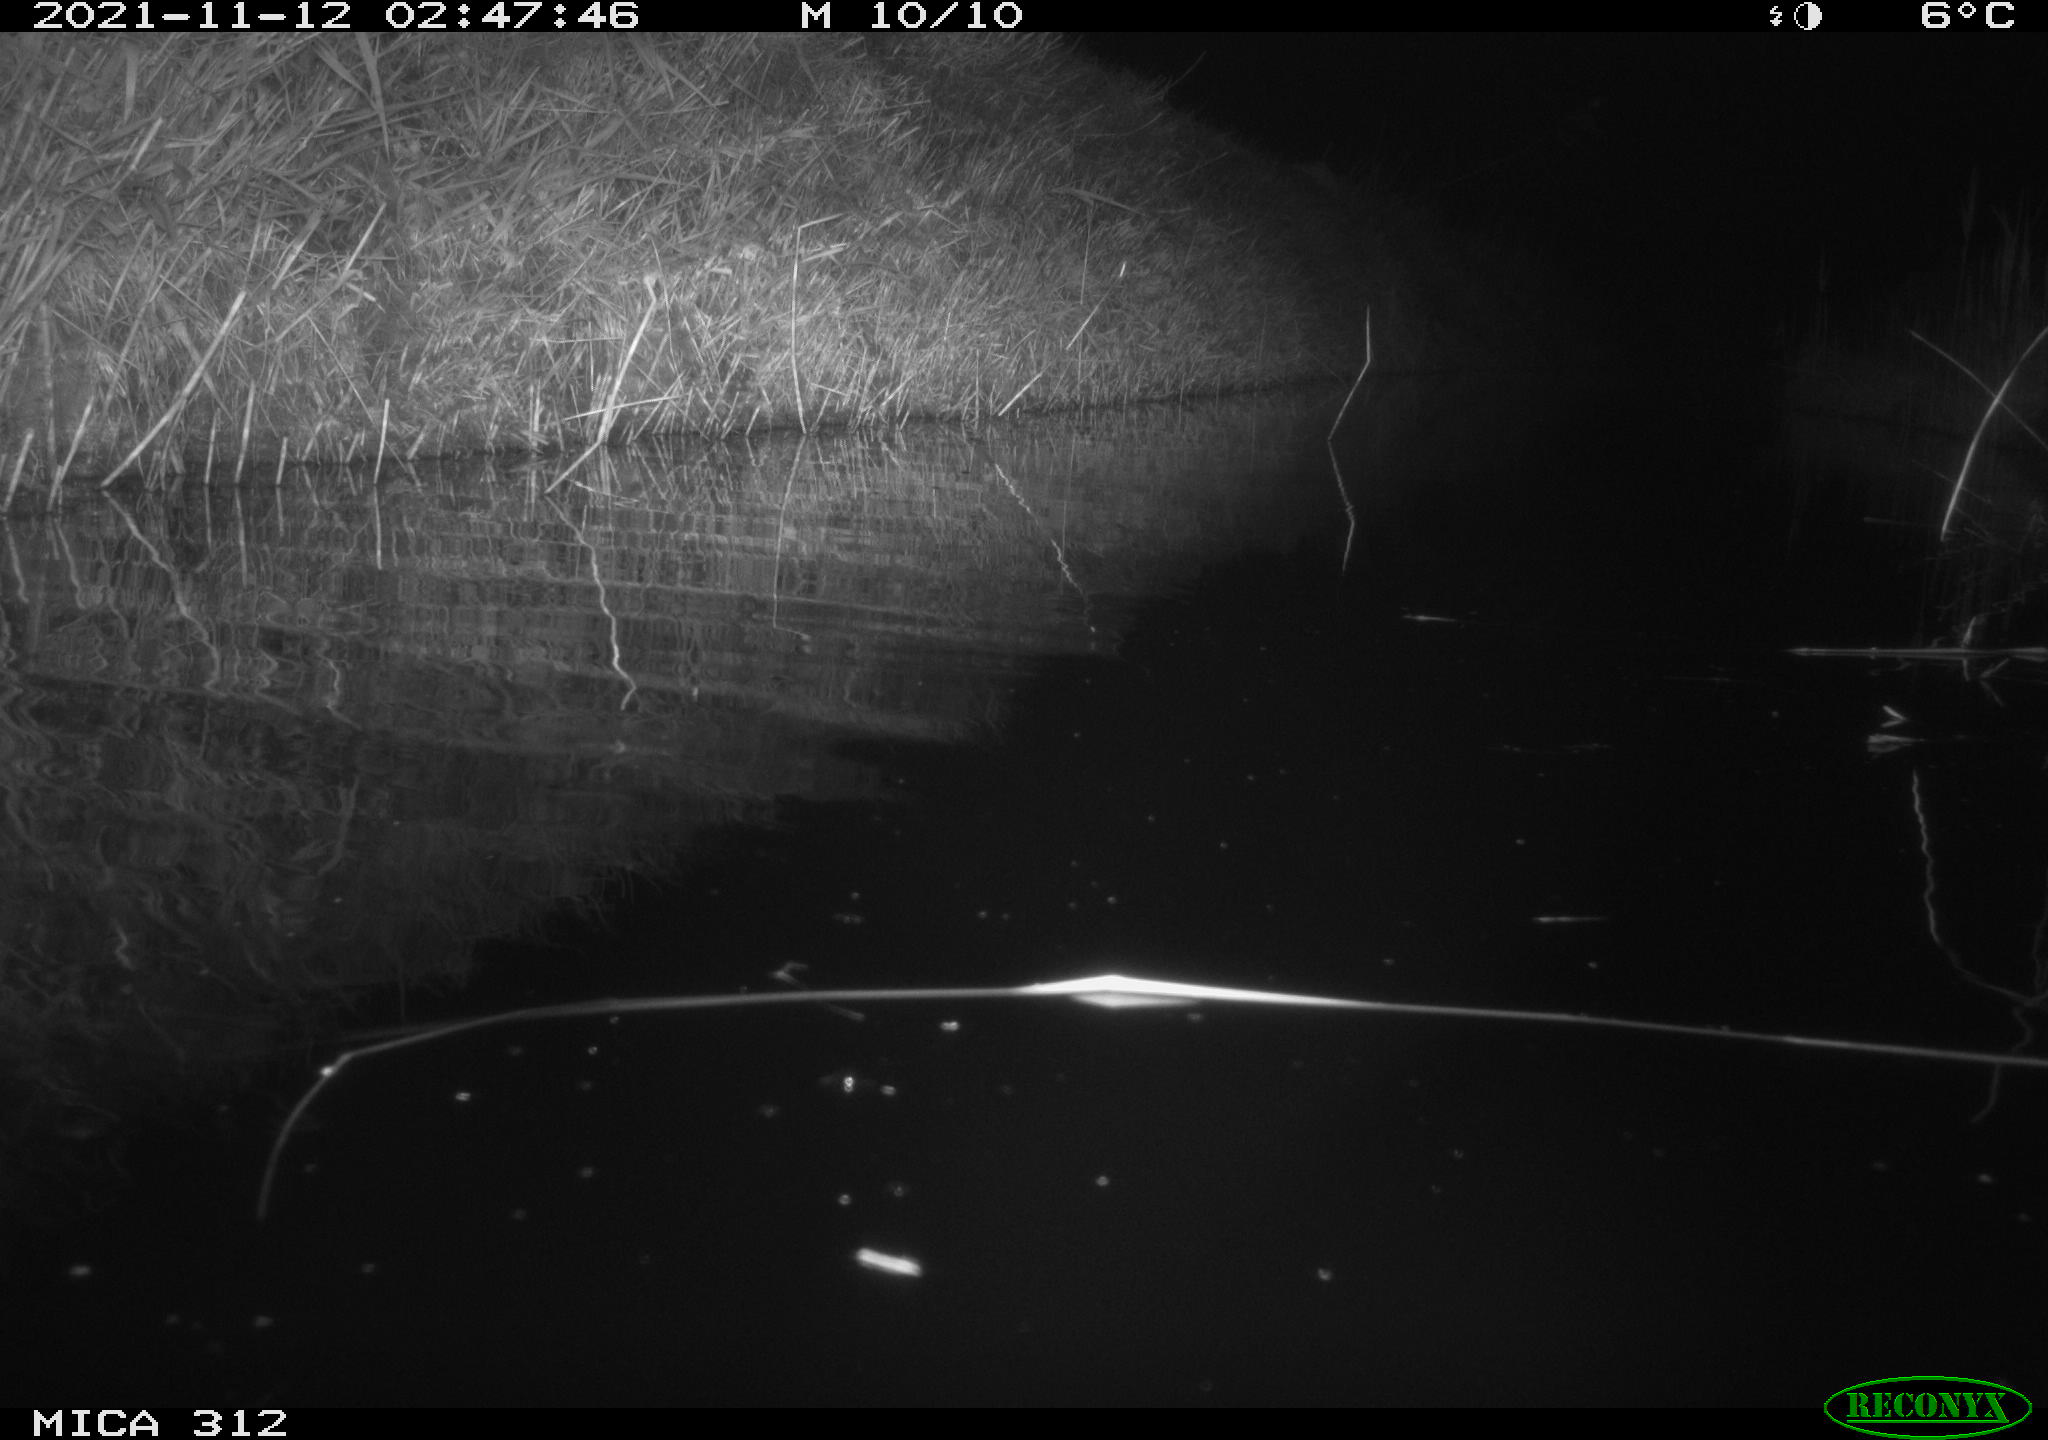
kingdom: Animalia
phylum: Chordata
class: Mammalia
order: Rodentia
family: Muridae
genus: Rattus
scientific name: Rattus norvegicus
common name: Brown rat
